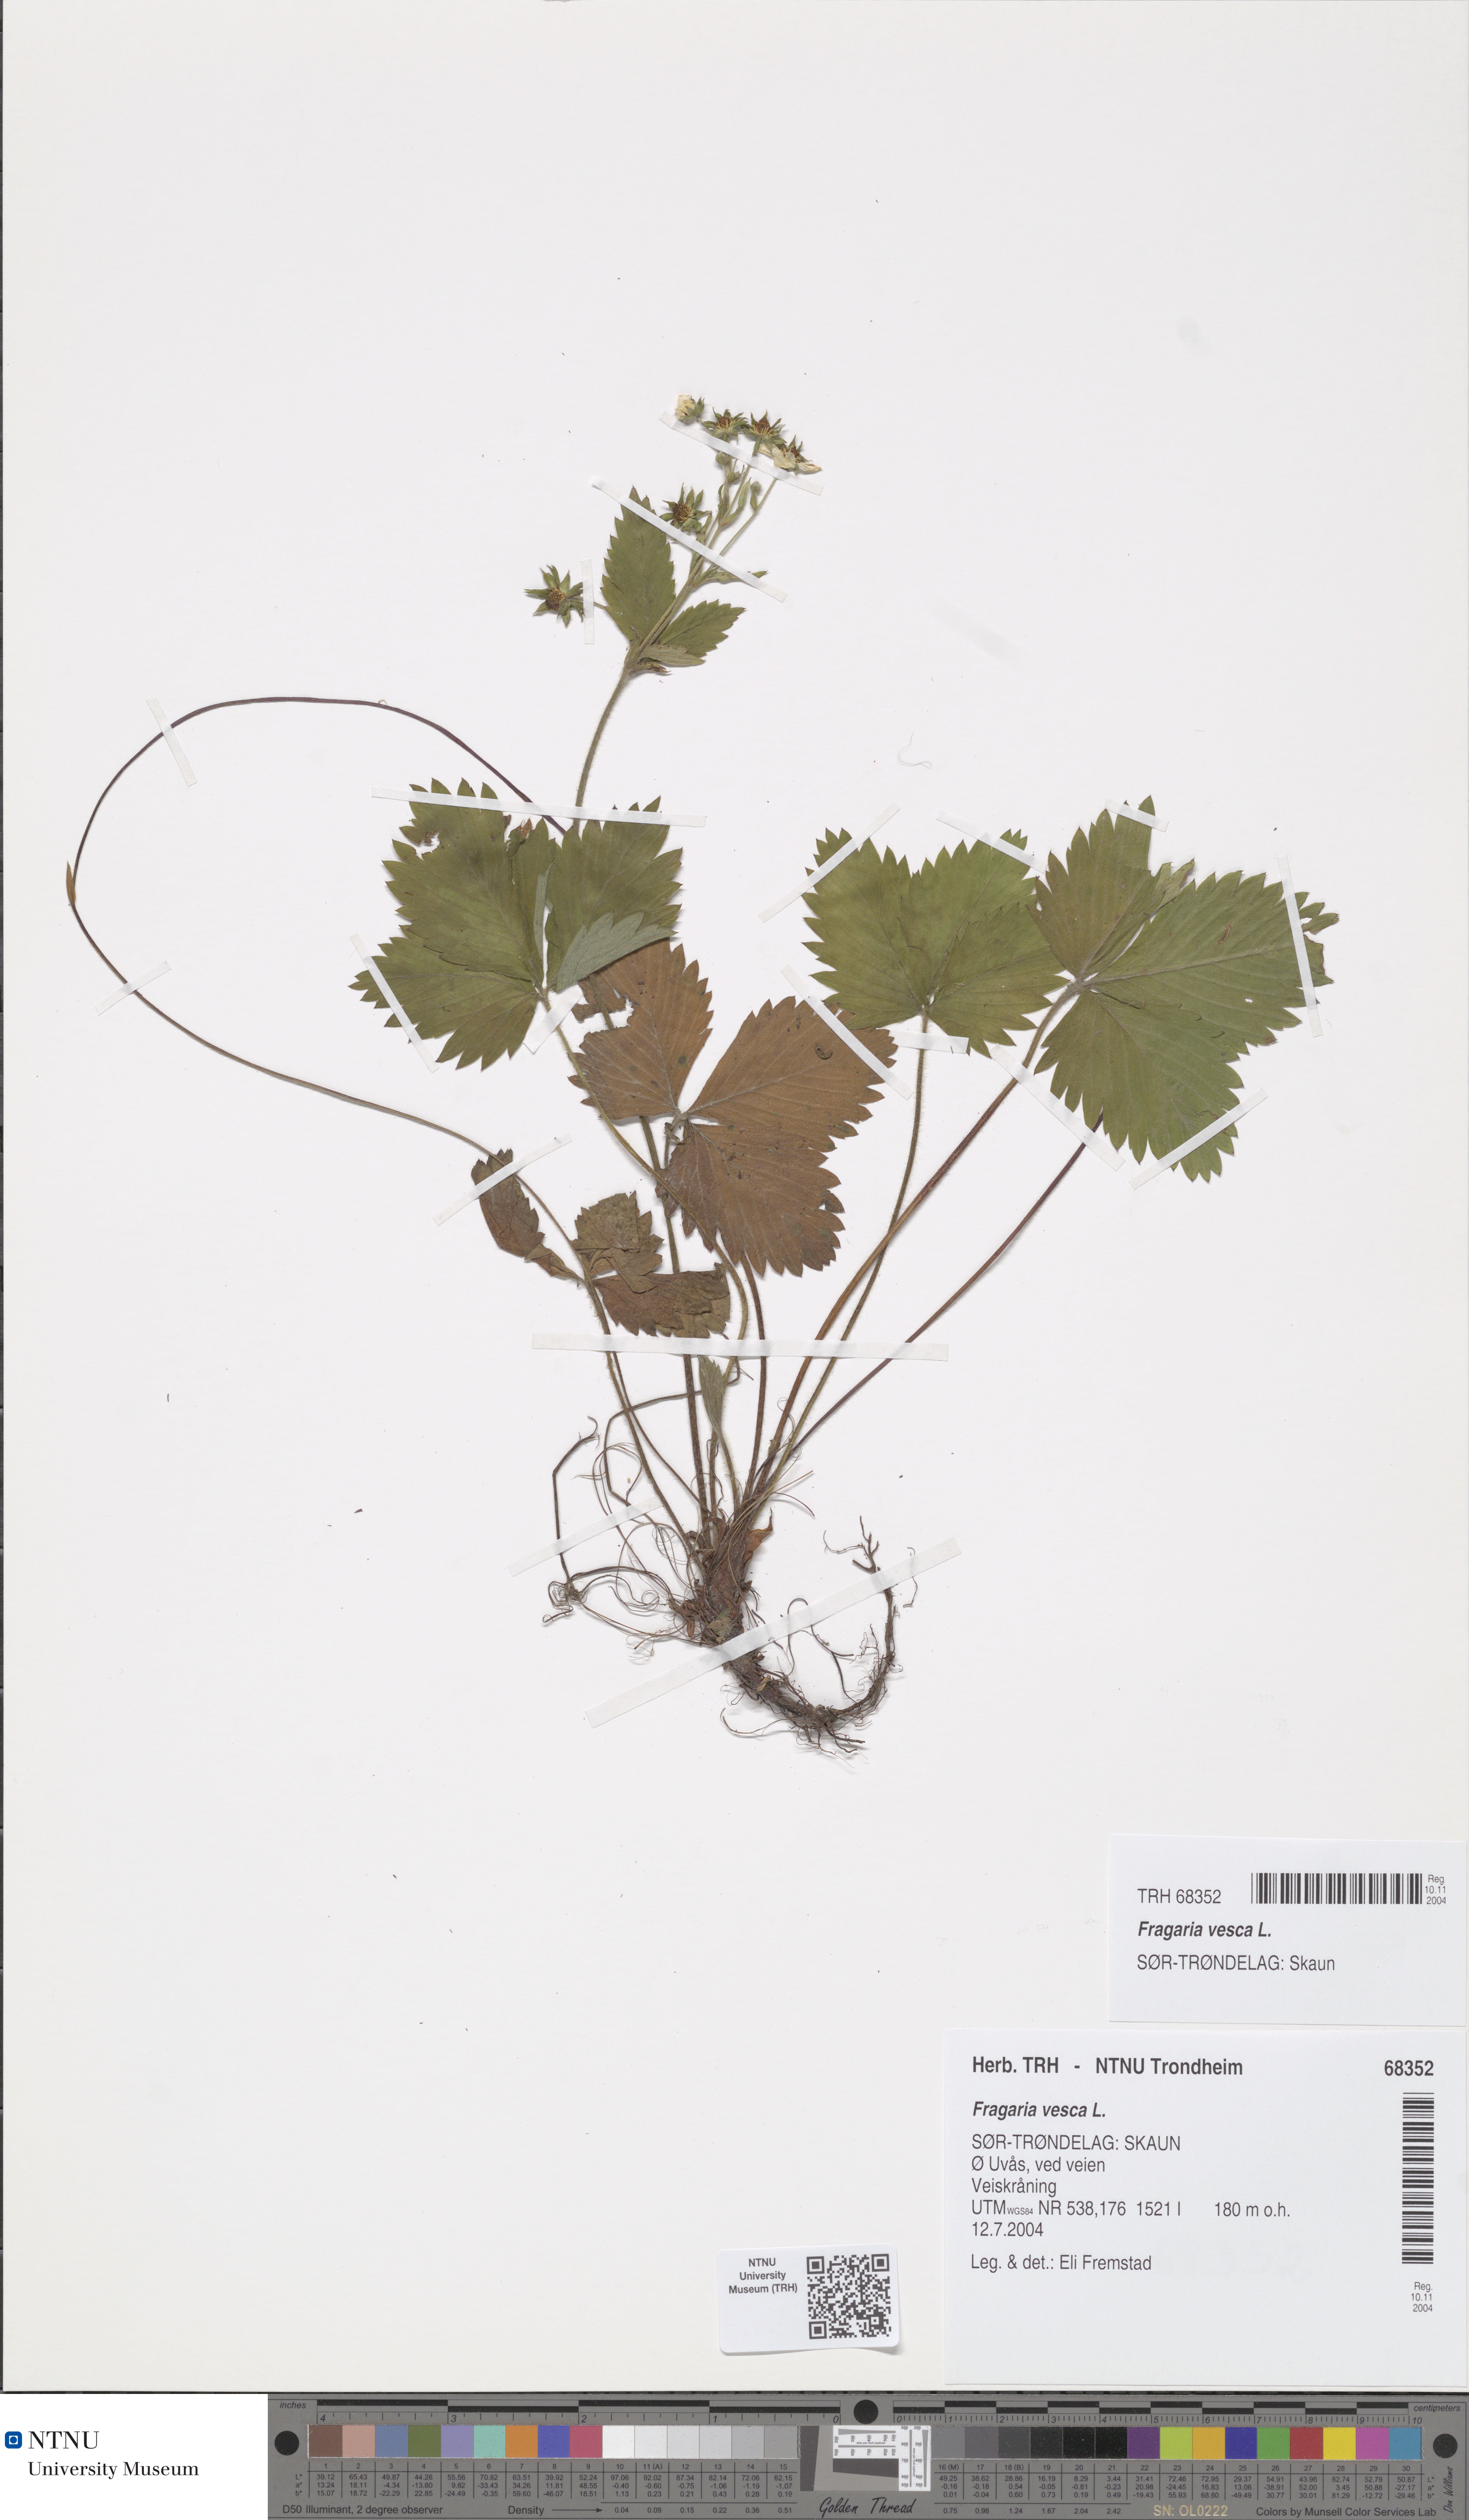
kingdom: Plantae
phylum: Tracheophyta
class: Magnoliopsida
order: Rosales
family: Rosaceae
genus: Fragaria
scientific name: Fragaria vesca
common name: Wild strawberry
